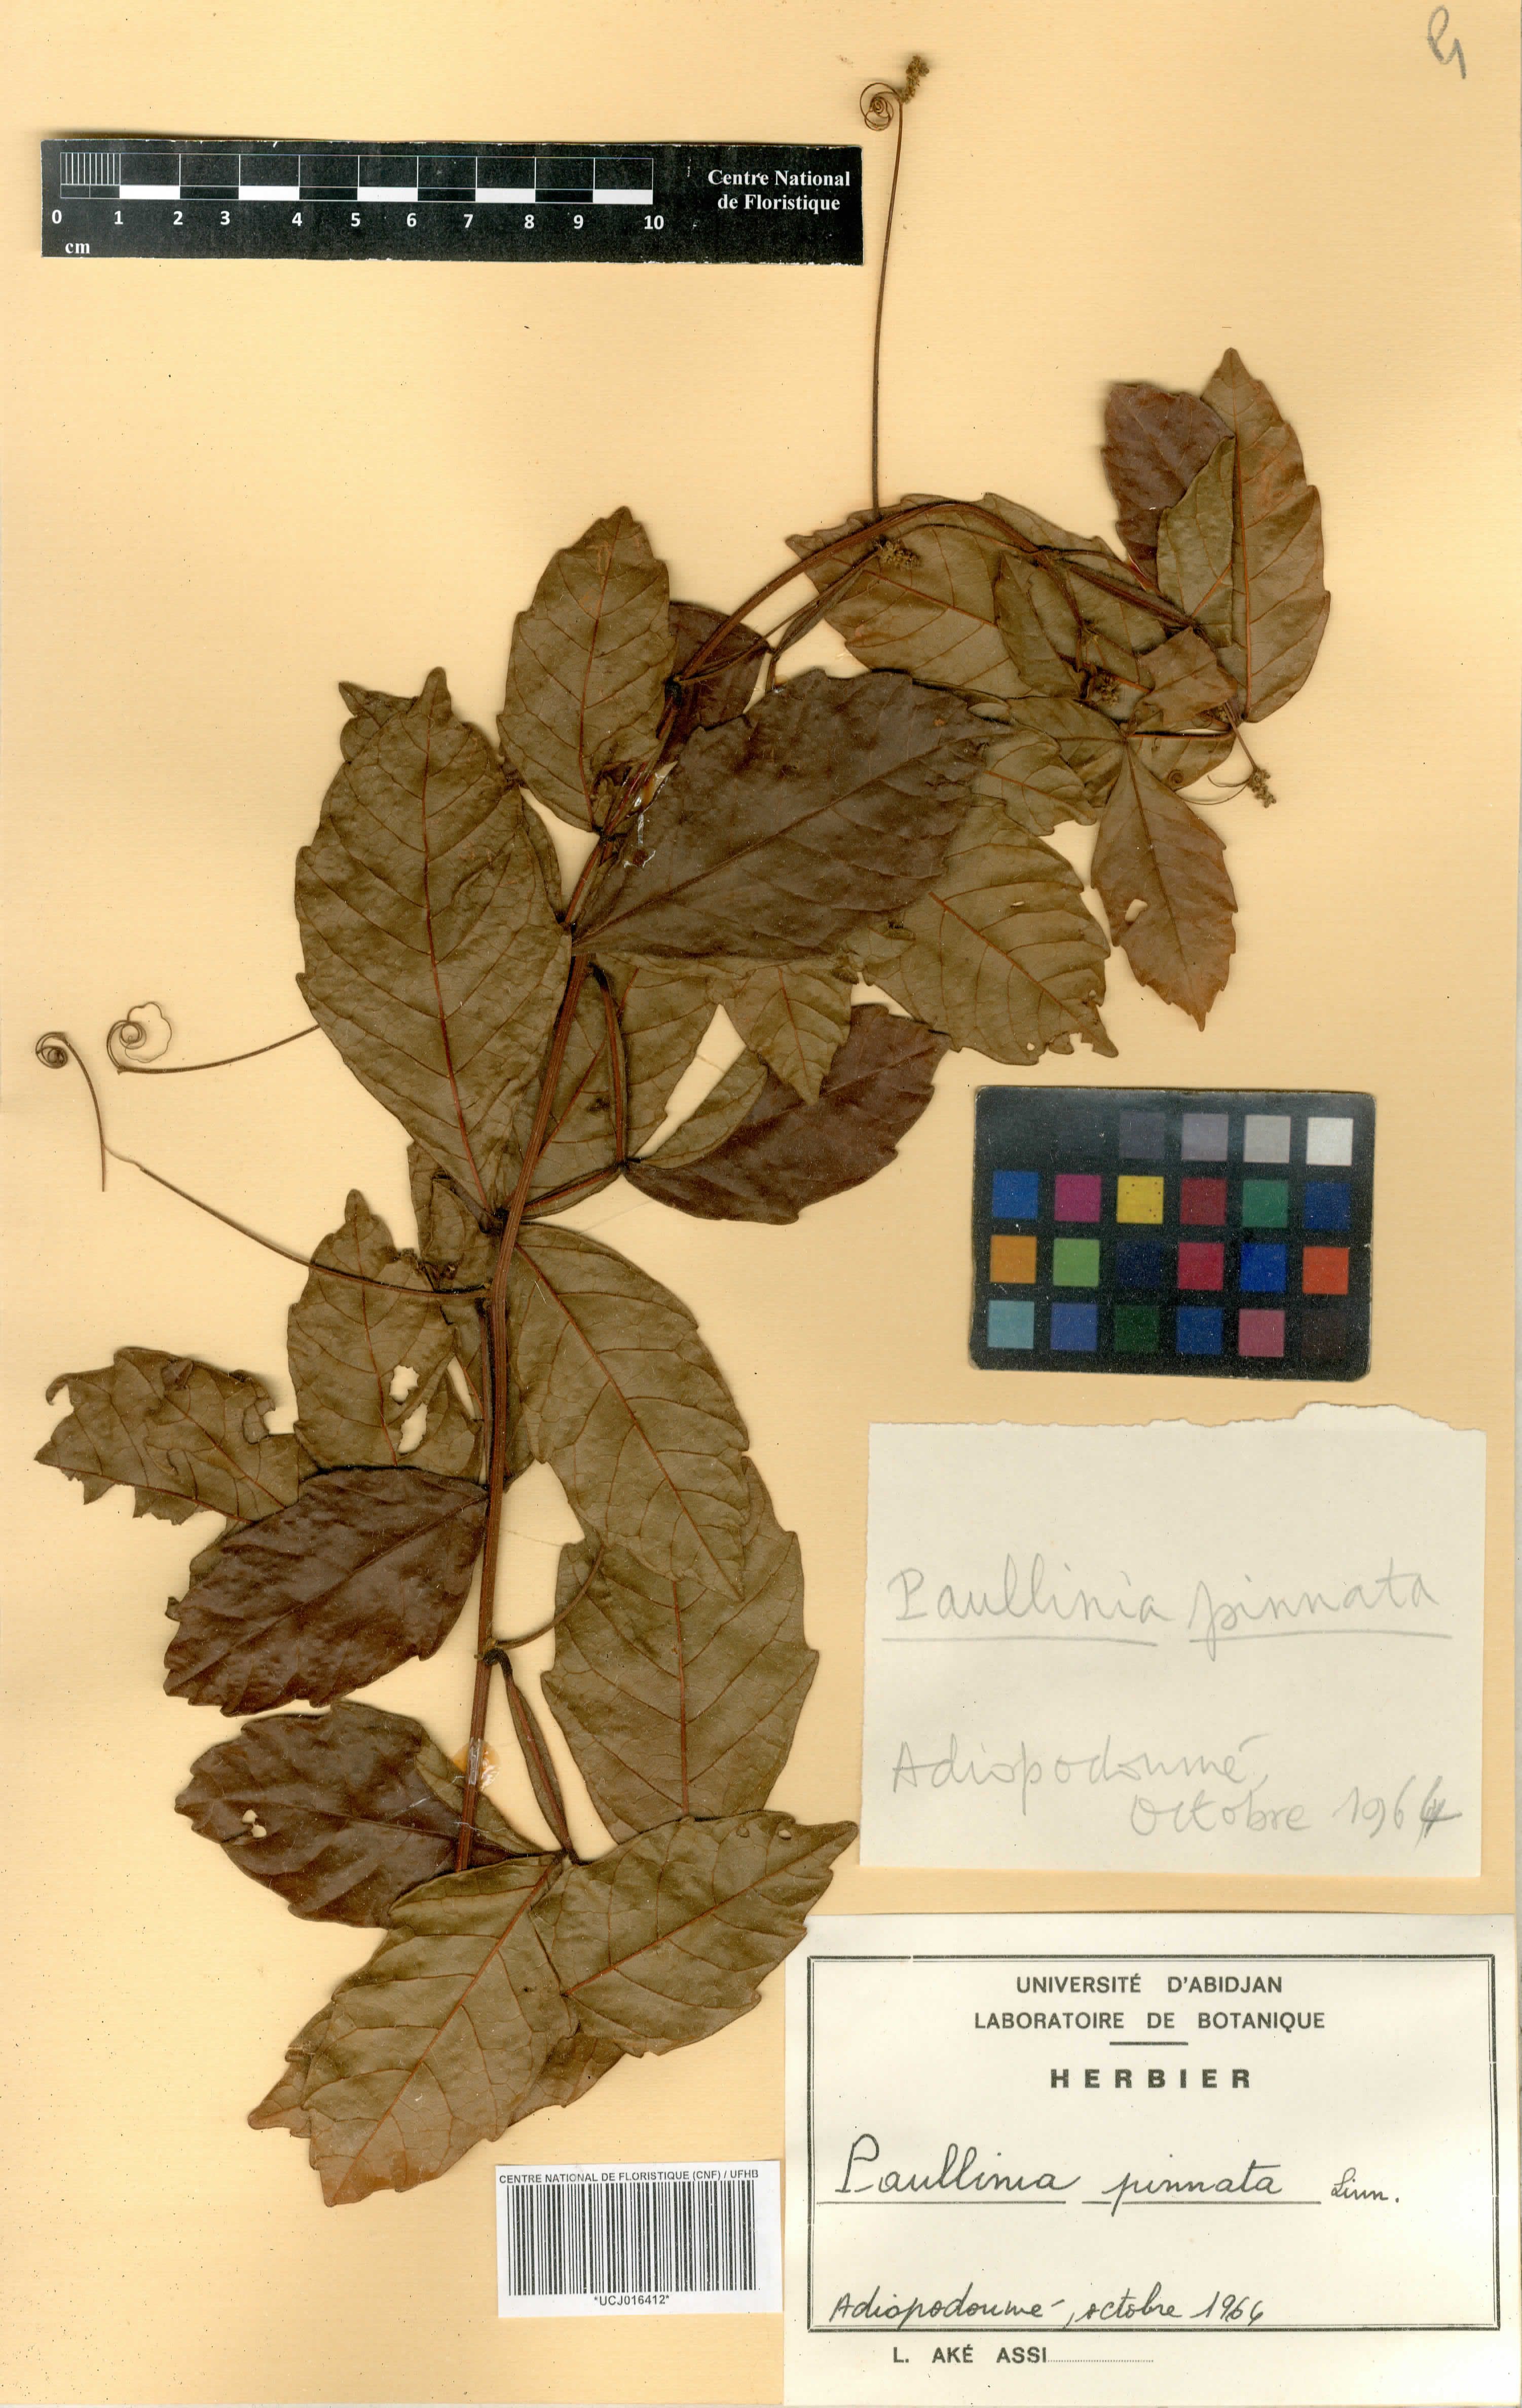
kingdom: Plantae
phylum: Tracheophyta
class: Magnoliopsida
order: Sapindales
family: Sapindaceae
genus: Paullinia
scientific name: Paullinia pinnata
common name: Barbasco
